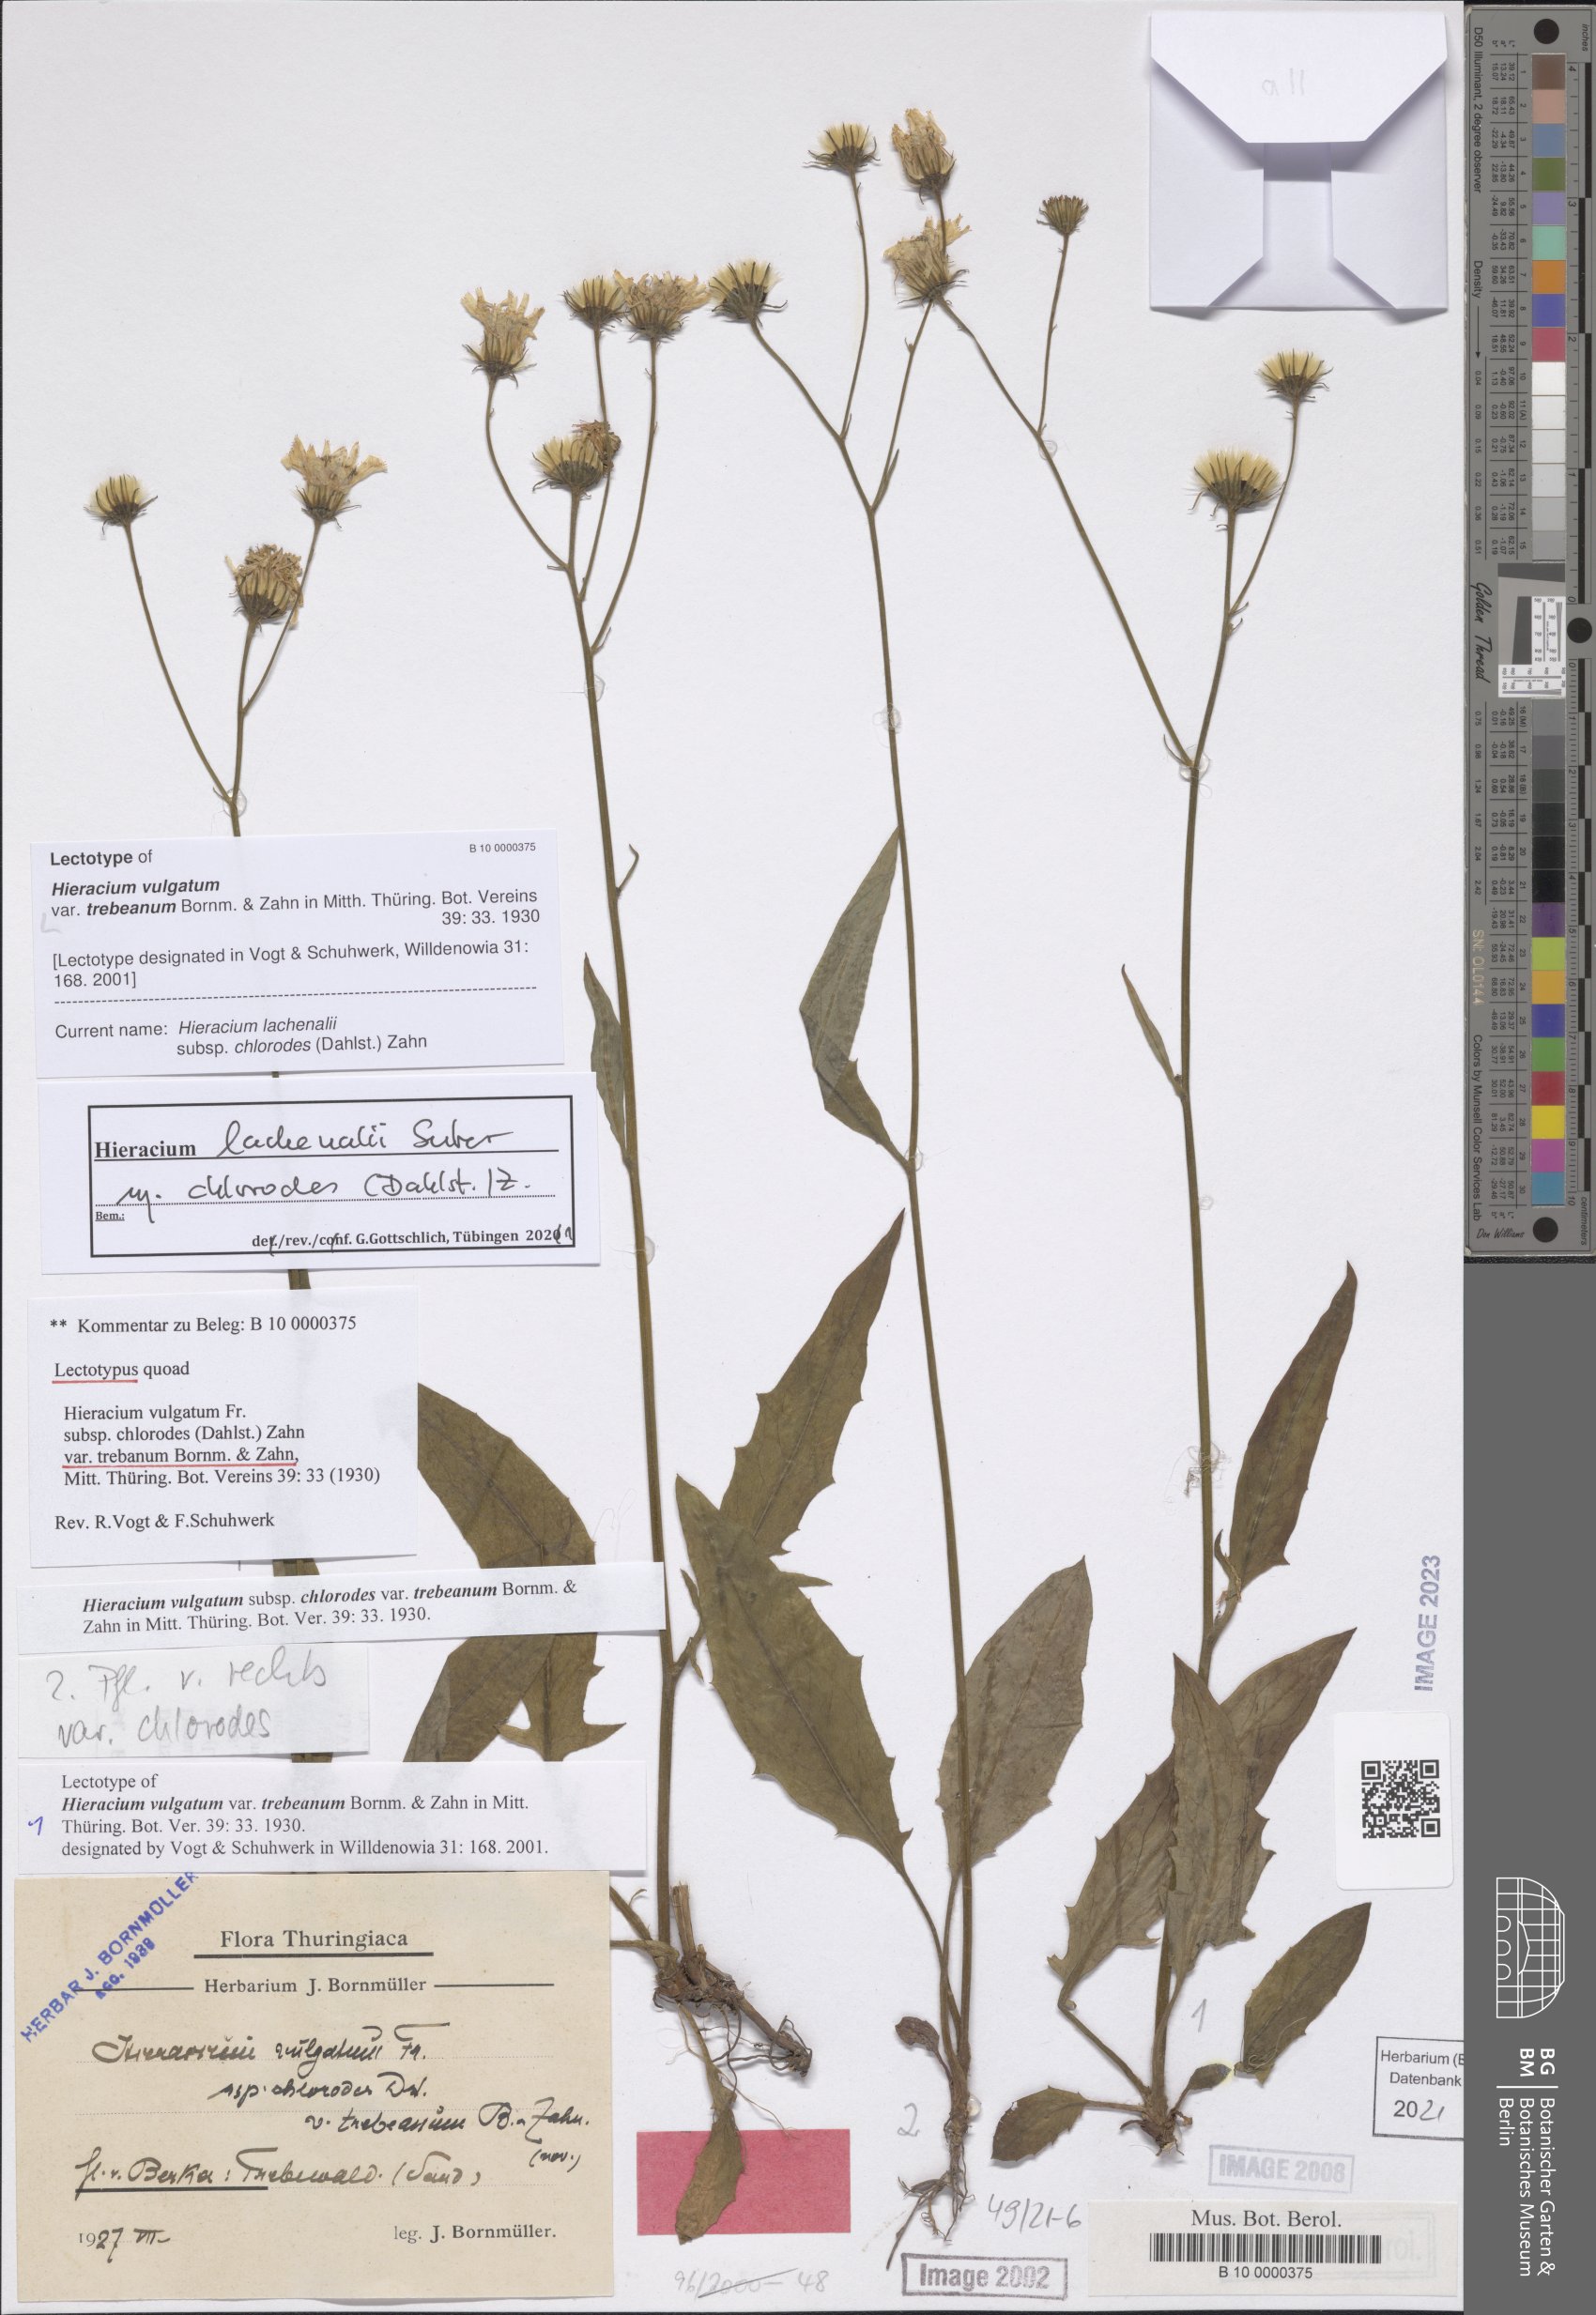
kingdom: Plantae
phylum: Tracheophyta
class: Magnoliopsida
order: Asterales
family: Asteraceae
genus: Hieracium
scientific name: Hieracium vulgatum
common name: Common hawkweed
